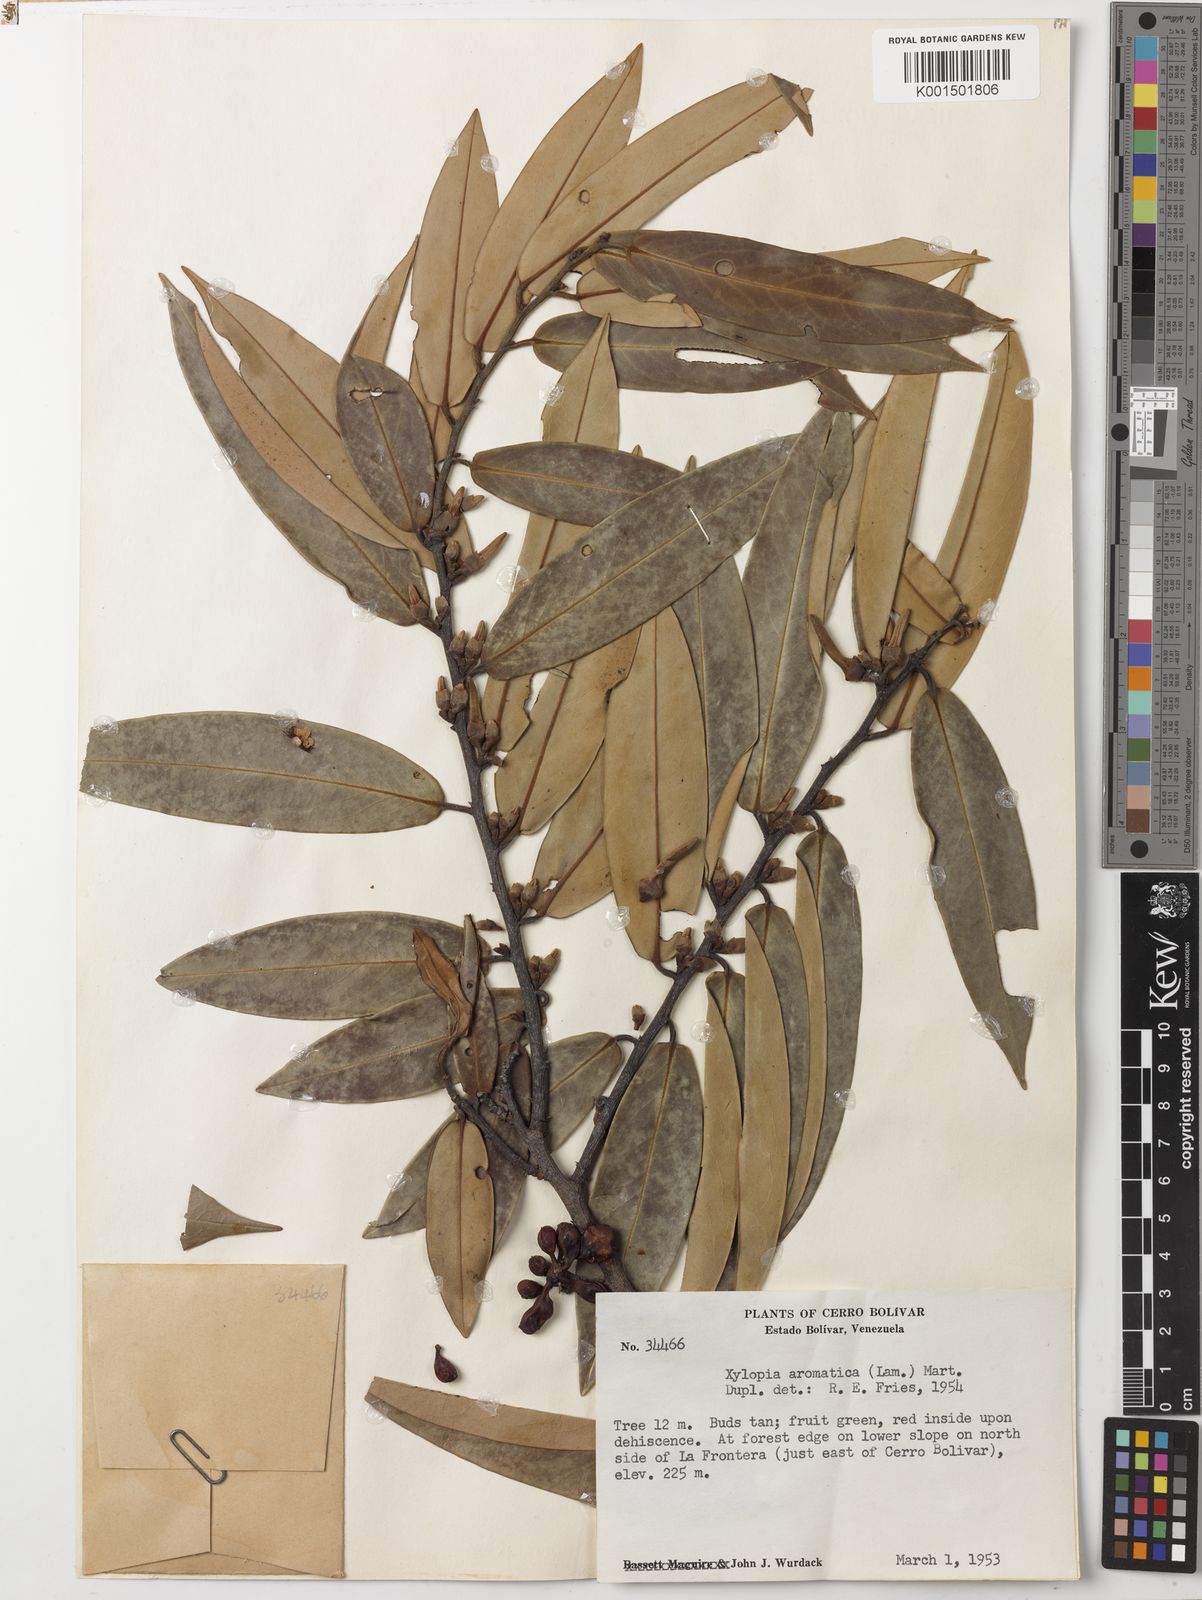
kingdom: Plantae
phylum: Tracheophyta
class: Magnoliopsida
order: Magnoliales
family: Annonaceae
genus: Xylopia
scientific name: Xylopia aromatica
